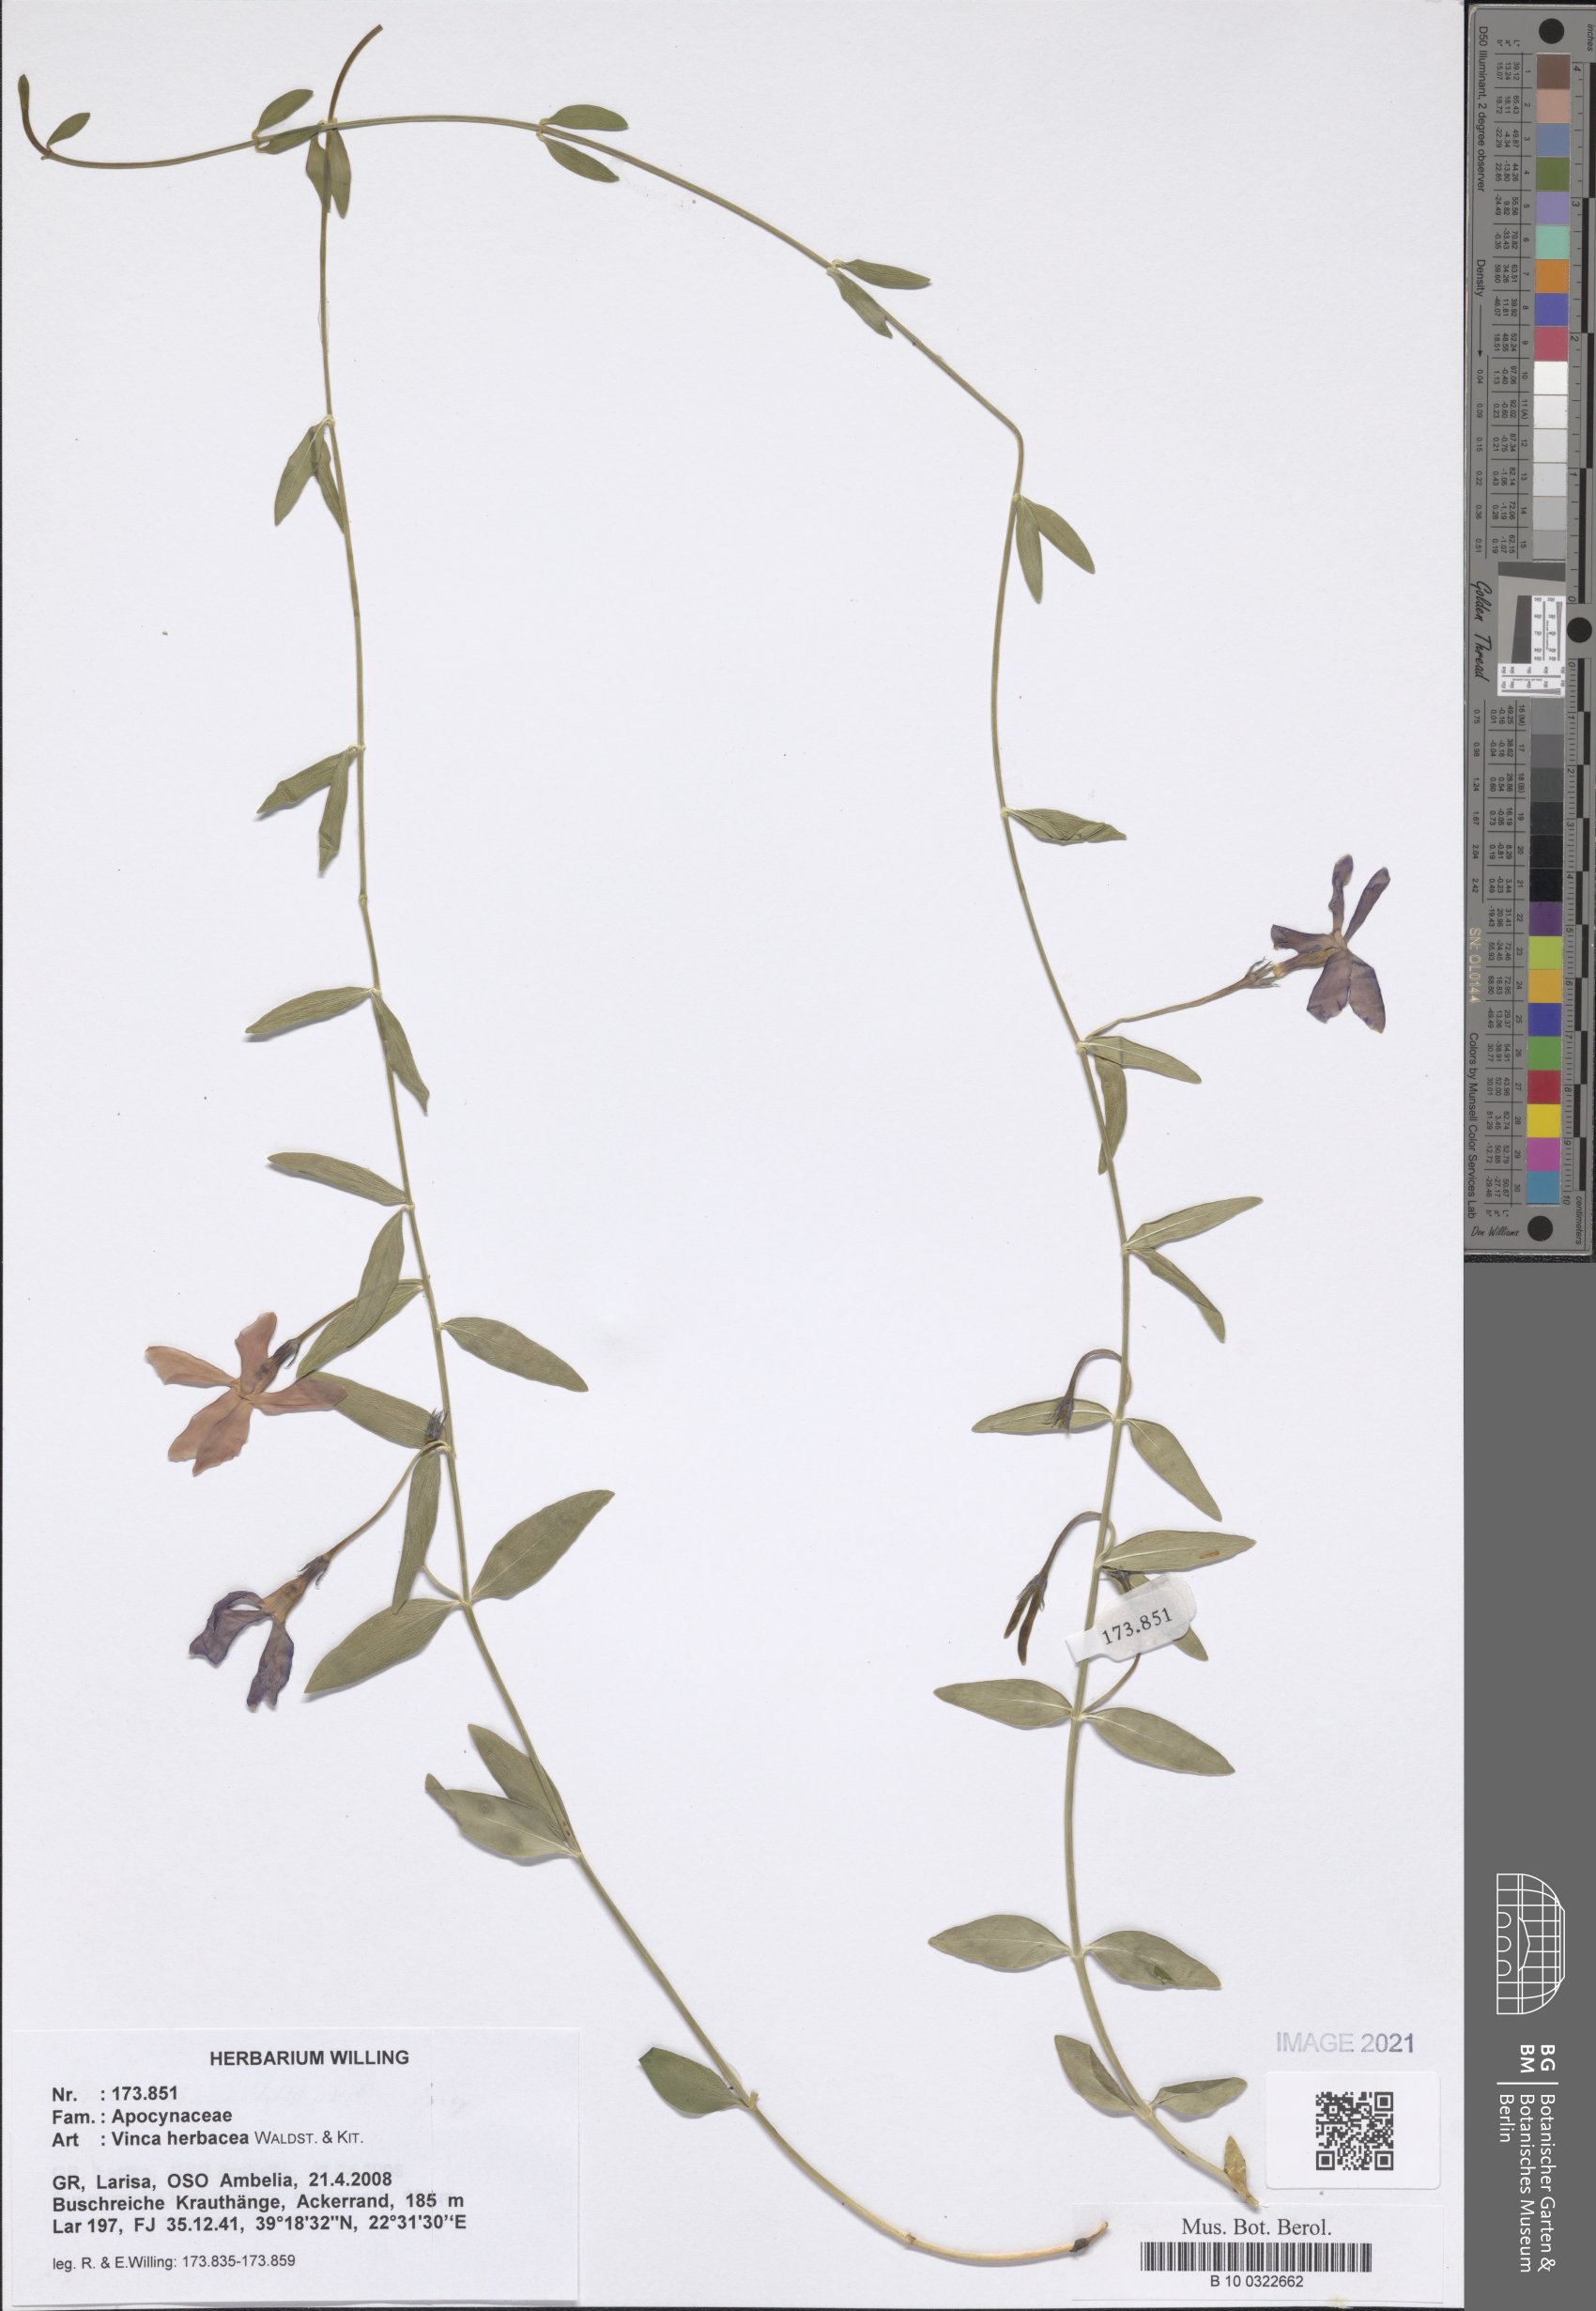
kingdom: Plantae
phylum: Tracheophyta
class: Magnoliopsida
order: Gentianales
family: Apocynaceae
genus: Vinca
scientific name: Vinca herbacea
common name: Herbaceous periwinkle
